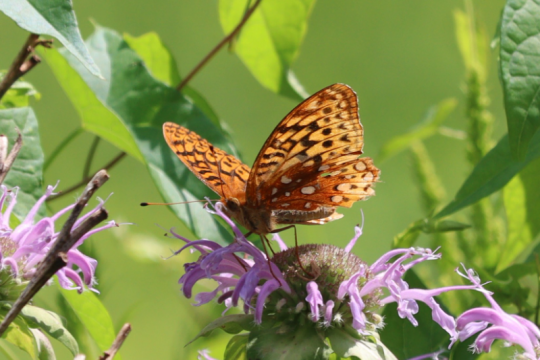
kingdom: Animalia
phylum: Arthropoda
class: Insecta
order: Lepidoptera
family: Nymphalidae
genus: Speyeria
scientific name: Speyeria cybele
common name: Great Spangled Fritillary
